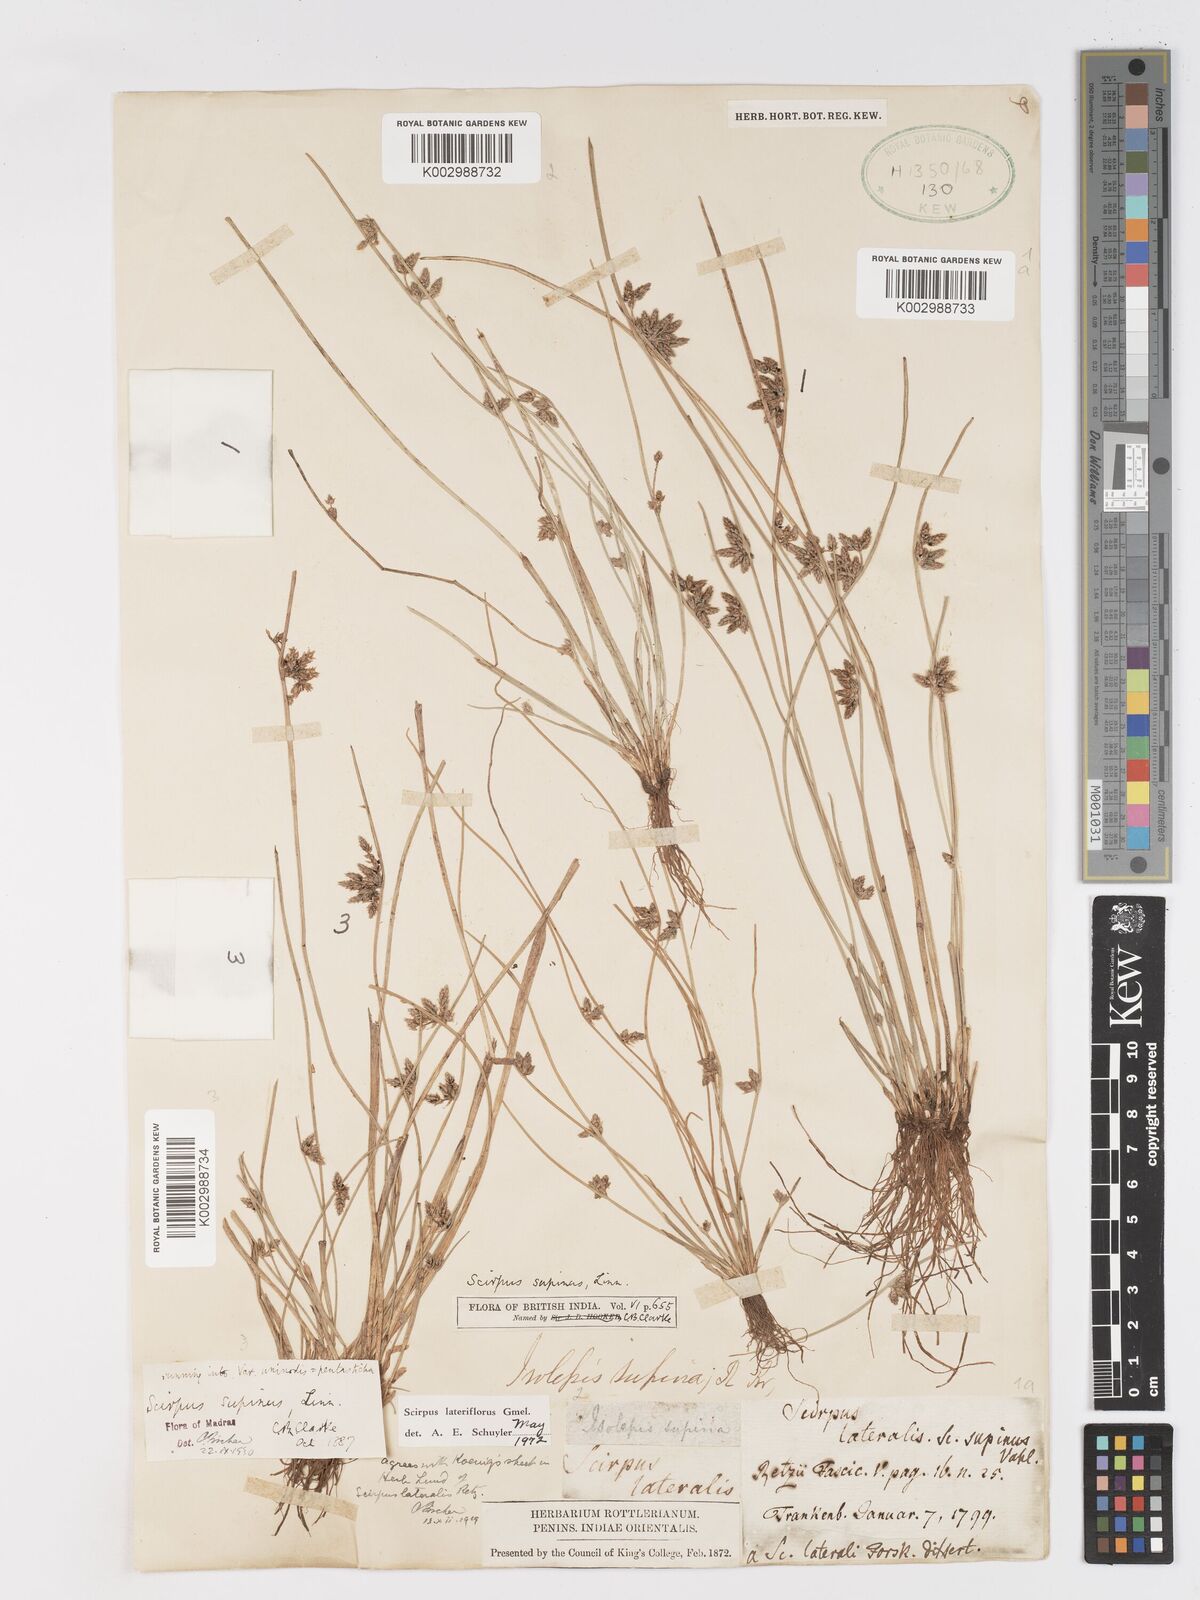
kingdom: Plantae
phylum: Tracheophyta
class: Liliopsida
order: Poales
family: Cyperaceae
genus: Schoenoplectiella
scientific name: Schoenoplectiella lateriflora
